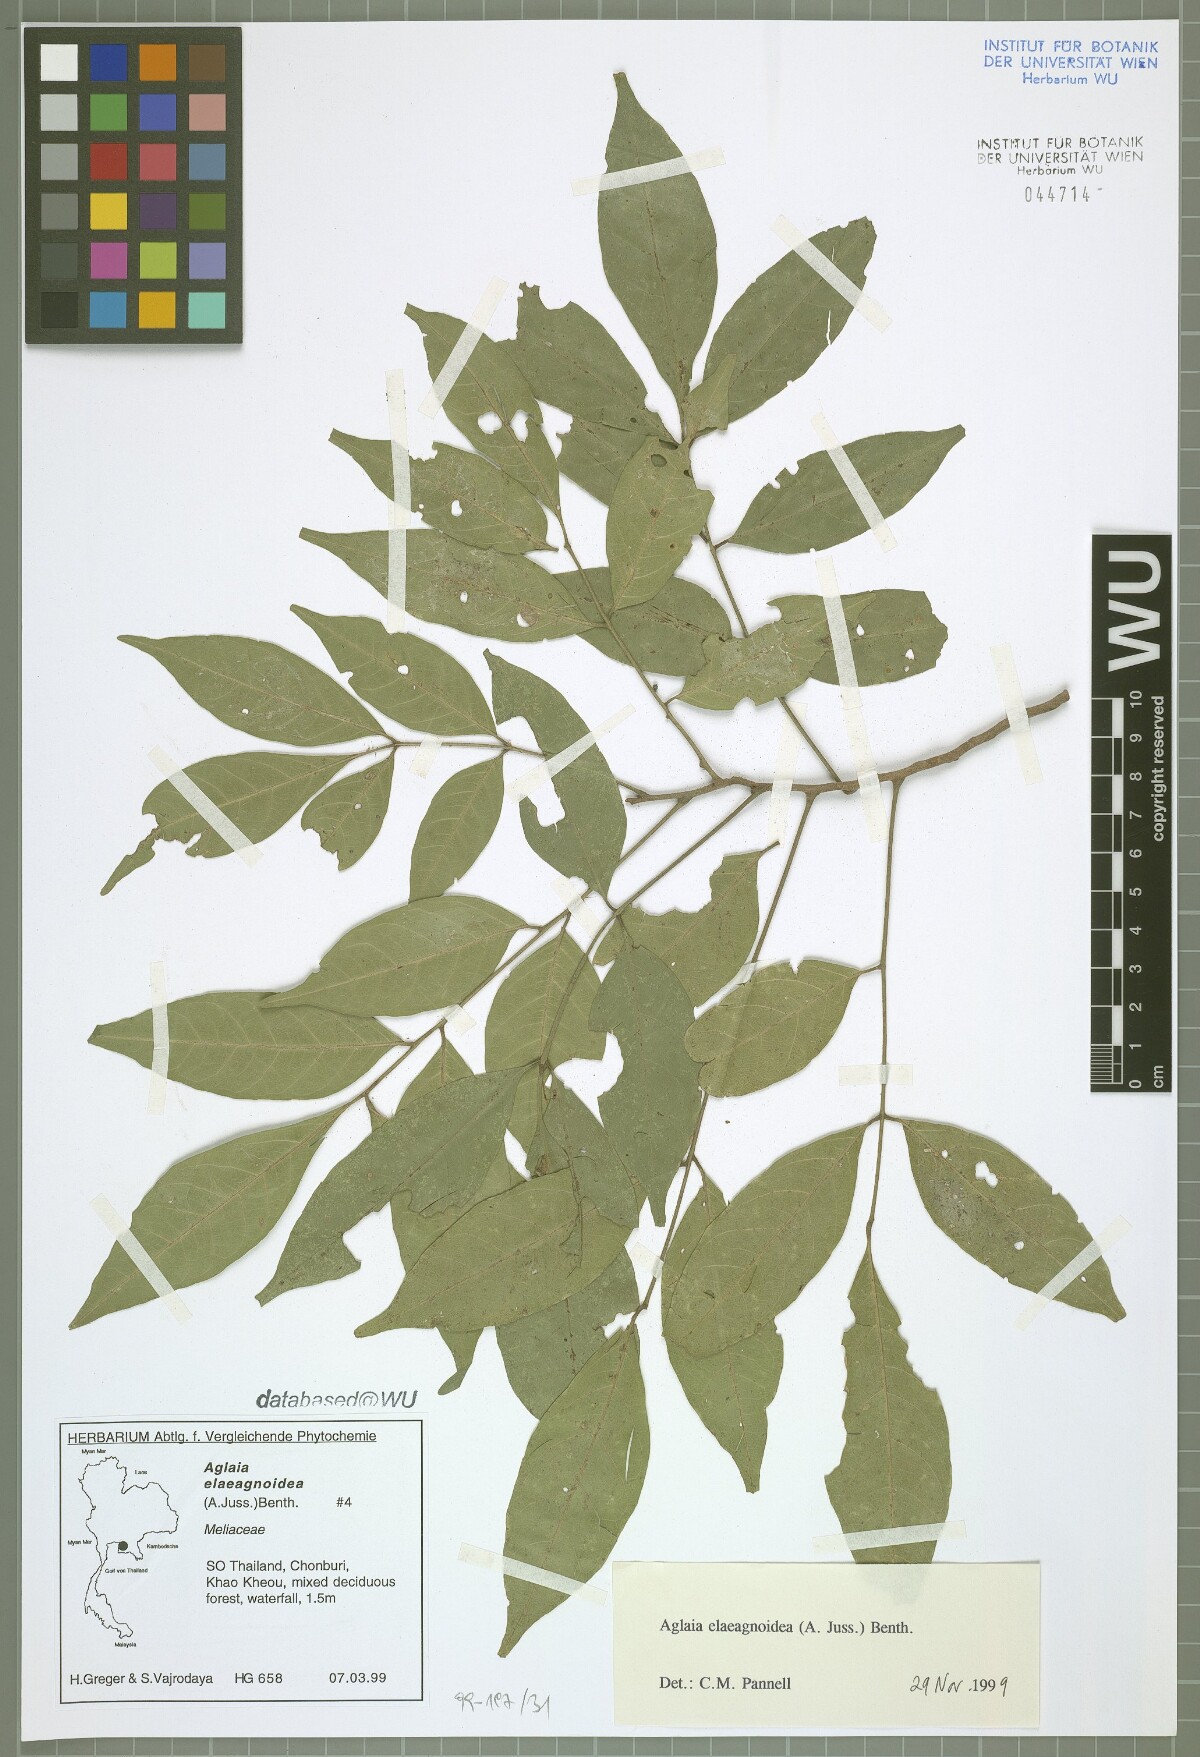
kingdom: Plantae
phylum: Tracheophyta
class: Magnoliopsida
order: Sapindales
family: Meliaceae
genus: Aglaia
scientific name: Aglaia elaeagnoidea
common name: Droopyleaf
